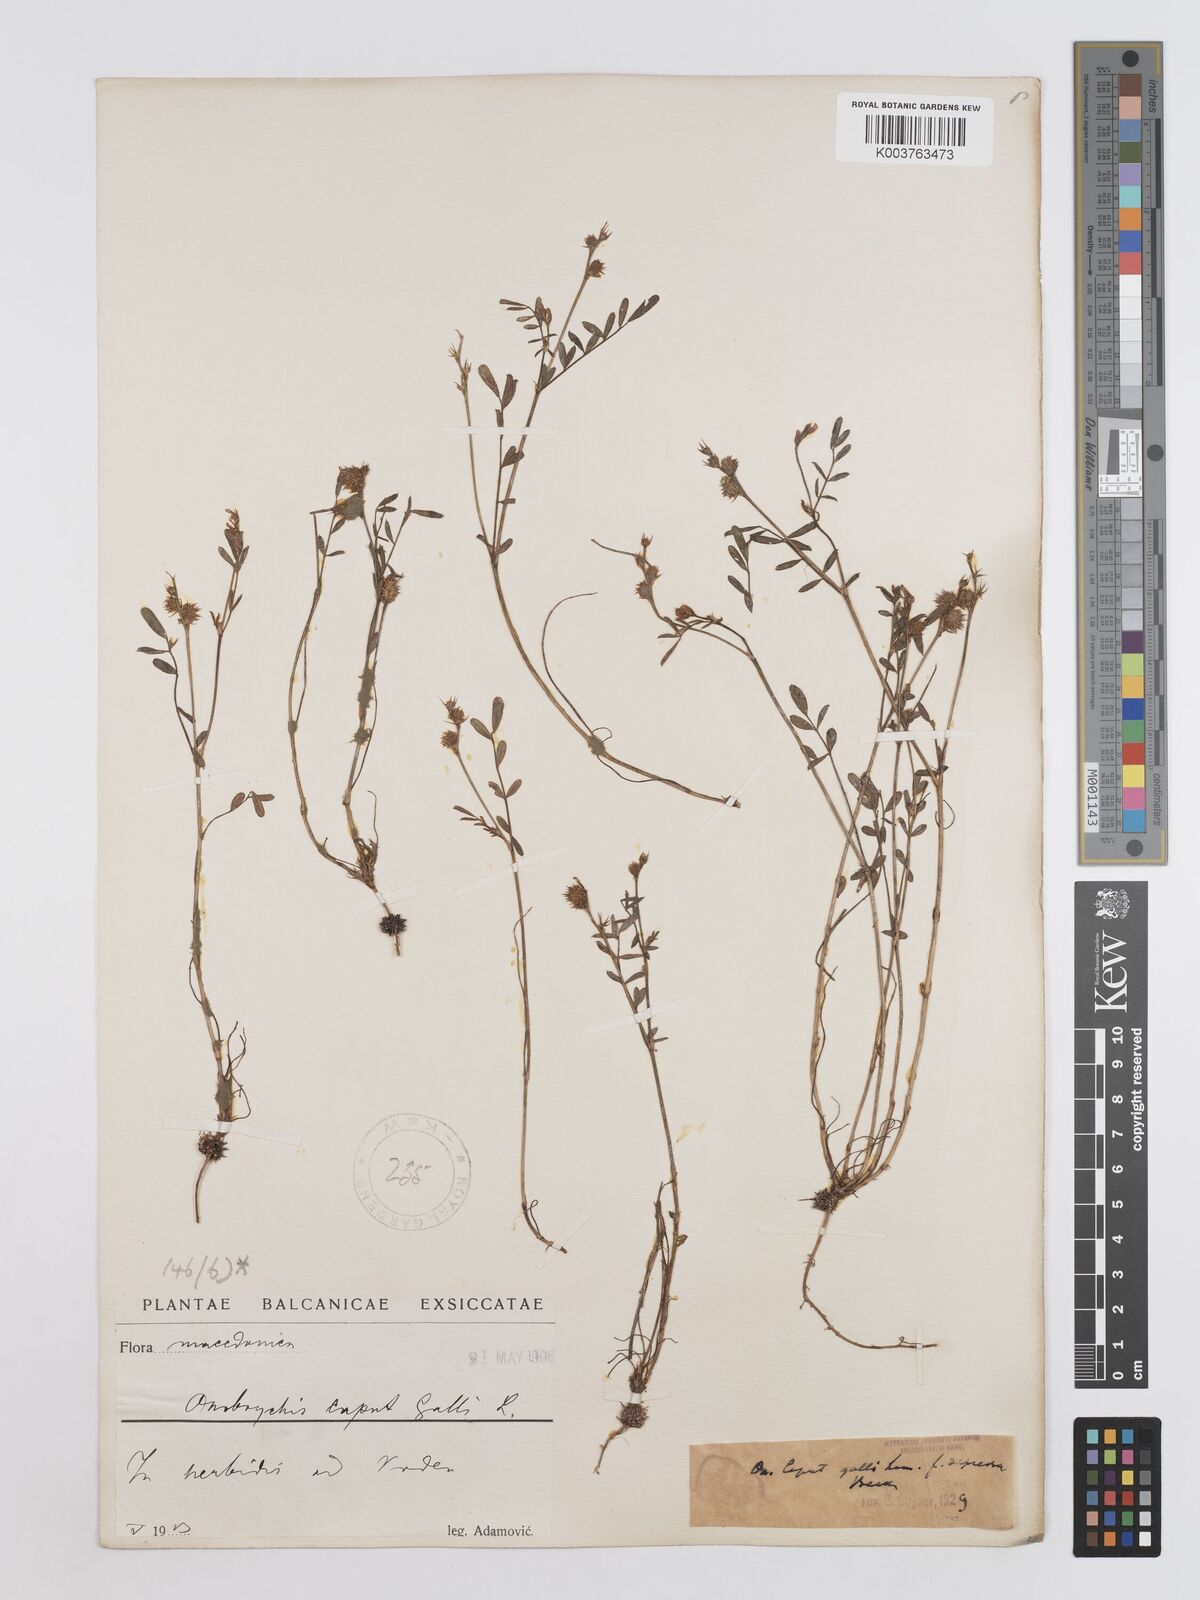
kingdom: Plantae
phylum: Tracheophyta
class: Magnoliopsida
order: Fabales
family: Fabaceae
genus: Onobrychis
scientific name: Onobrychis caput-galli
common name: Cockscomb sainfoin
